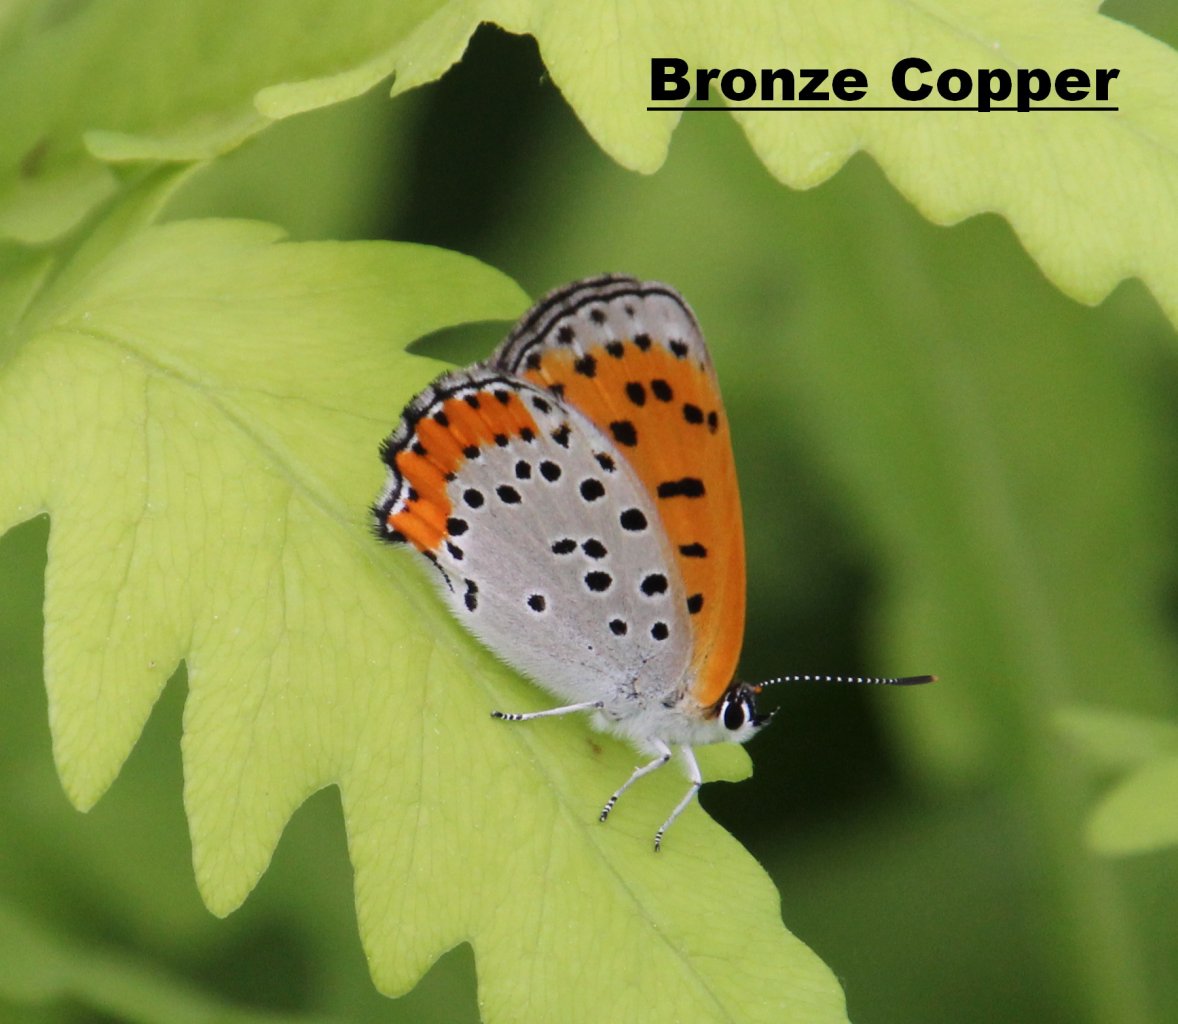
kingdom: Animalia
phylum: Arthropoda
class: Insecta
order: Lepidoptera
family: Sesiidae
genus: Sesia
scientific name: Sesia Lycaena hyllus
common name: Bronze Copper
